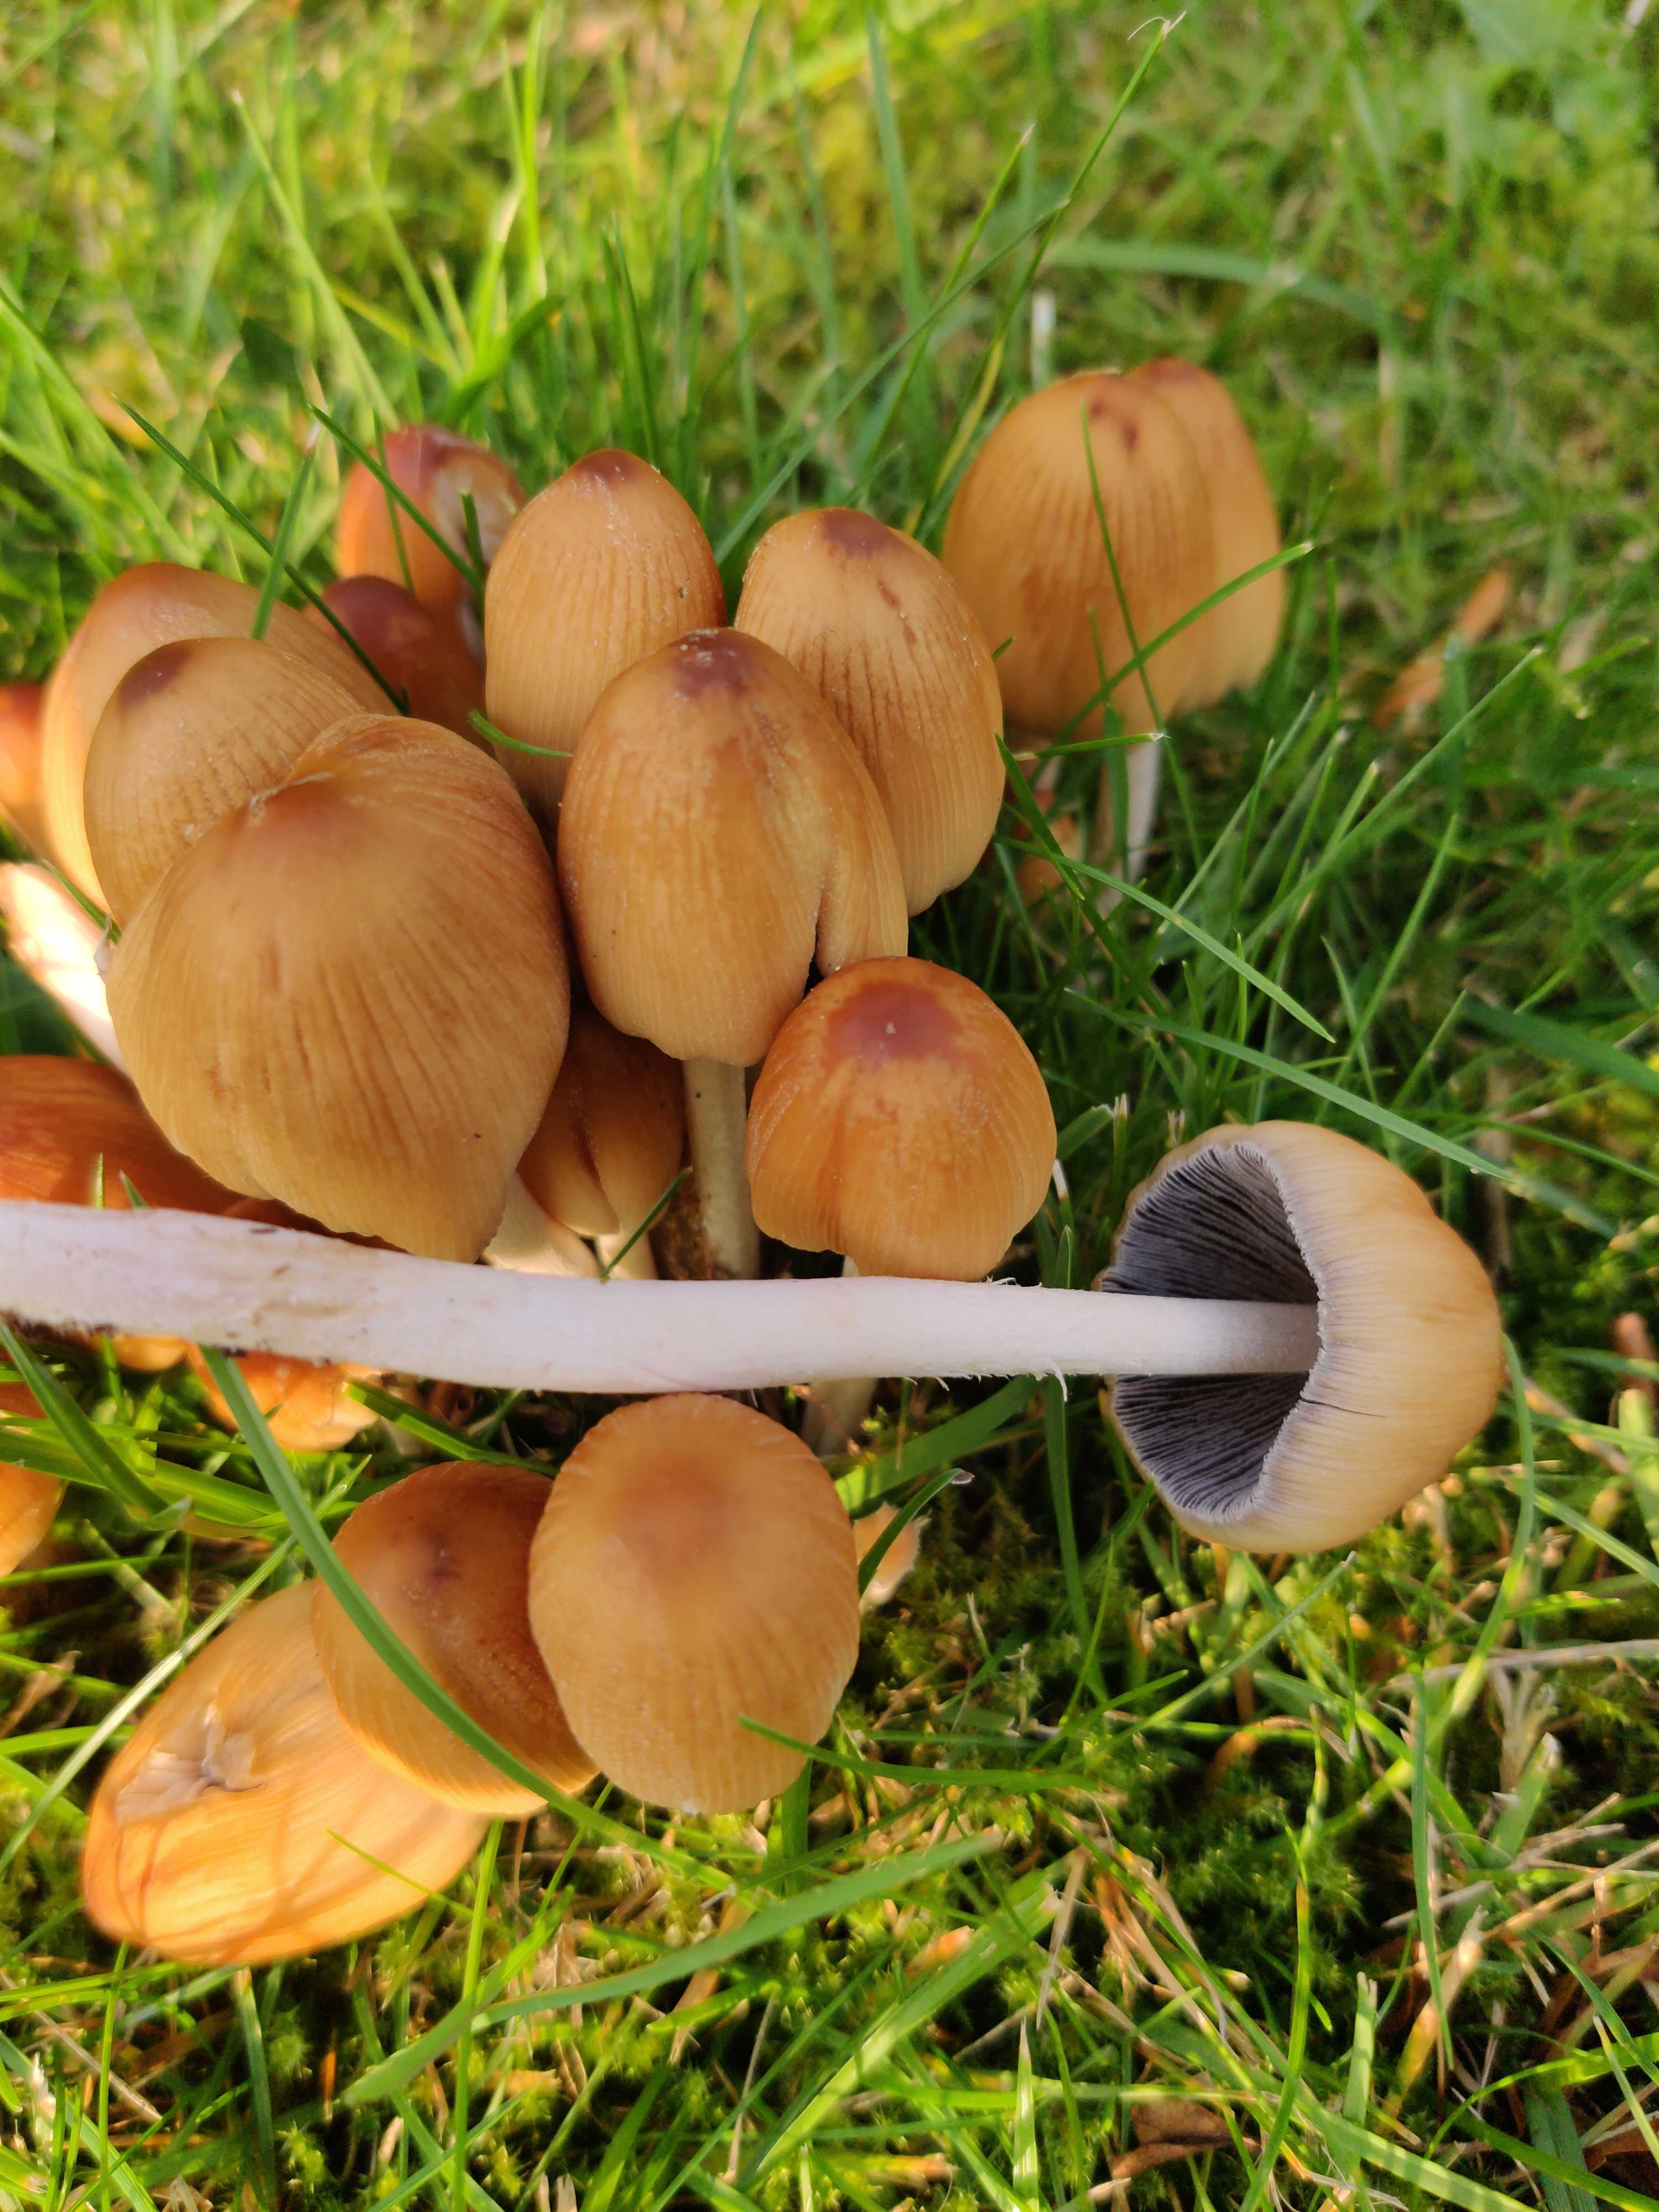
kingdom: Fungi
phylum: Basidiomycota
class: Agaricomycetes
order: Agaricales
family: Psathyrellaceae
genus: Coprinellus
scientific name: Coprinellus micaceus
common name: glimmer-blækhat
